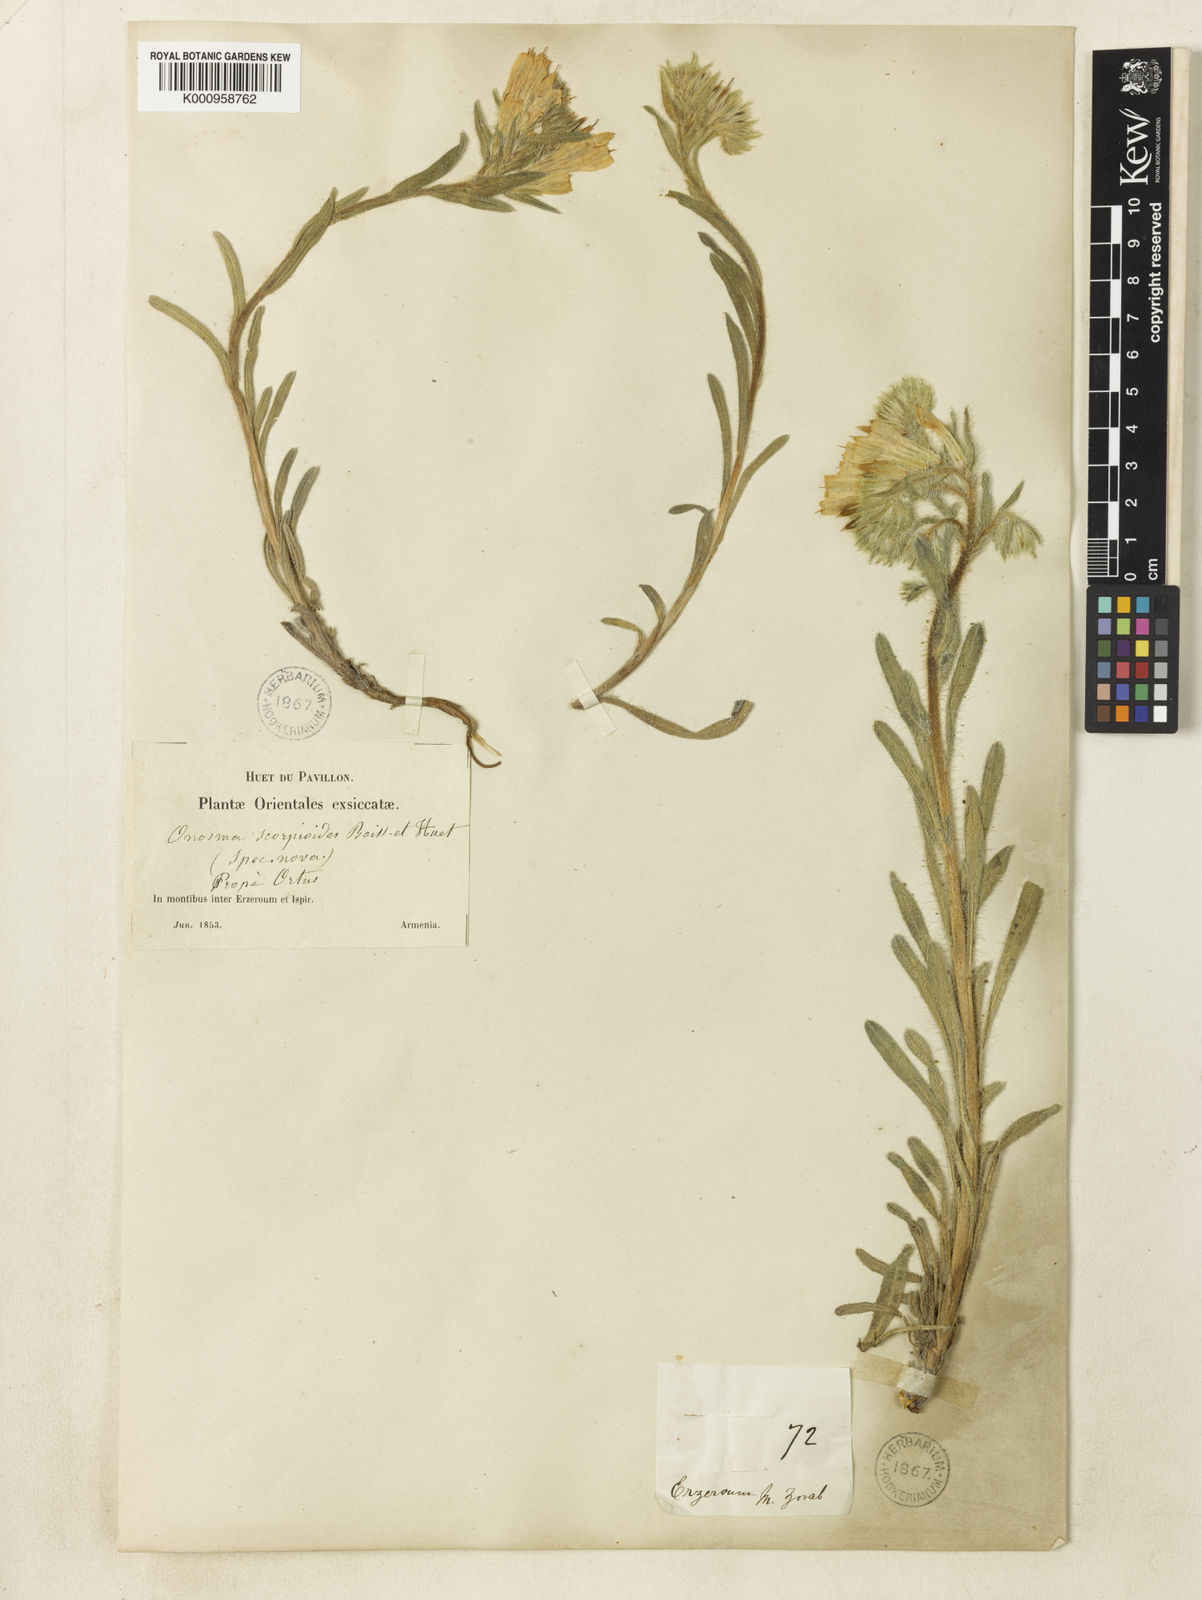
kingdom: Plantae
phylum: Tracheophyta
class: Magnoliopsida
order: Boraginales
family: Boraginaceae
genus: Onosma
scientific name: Onosma aucheriana
